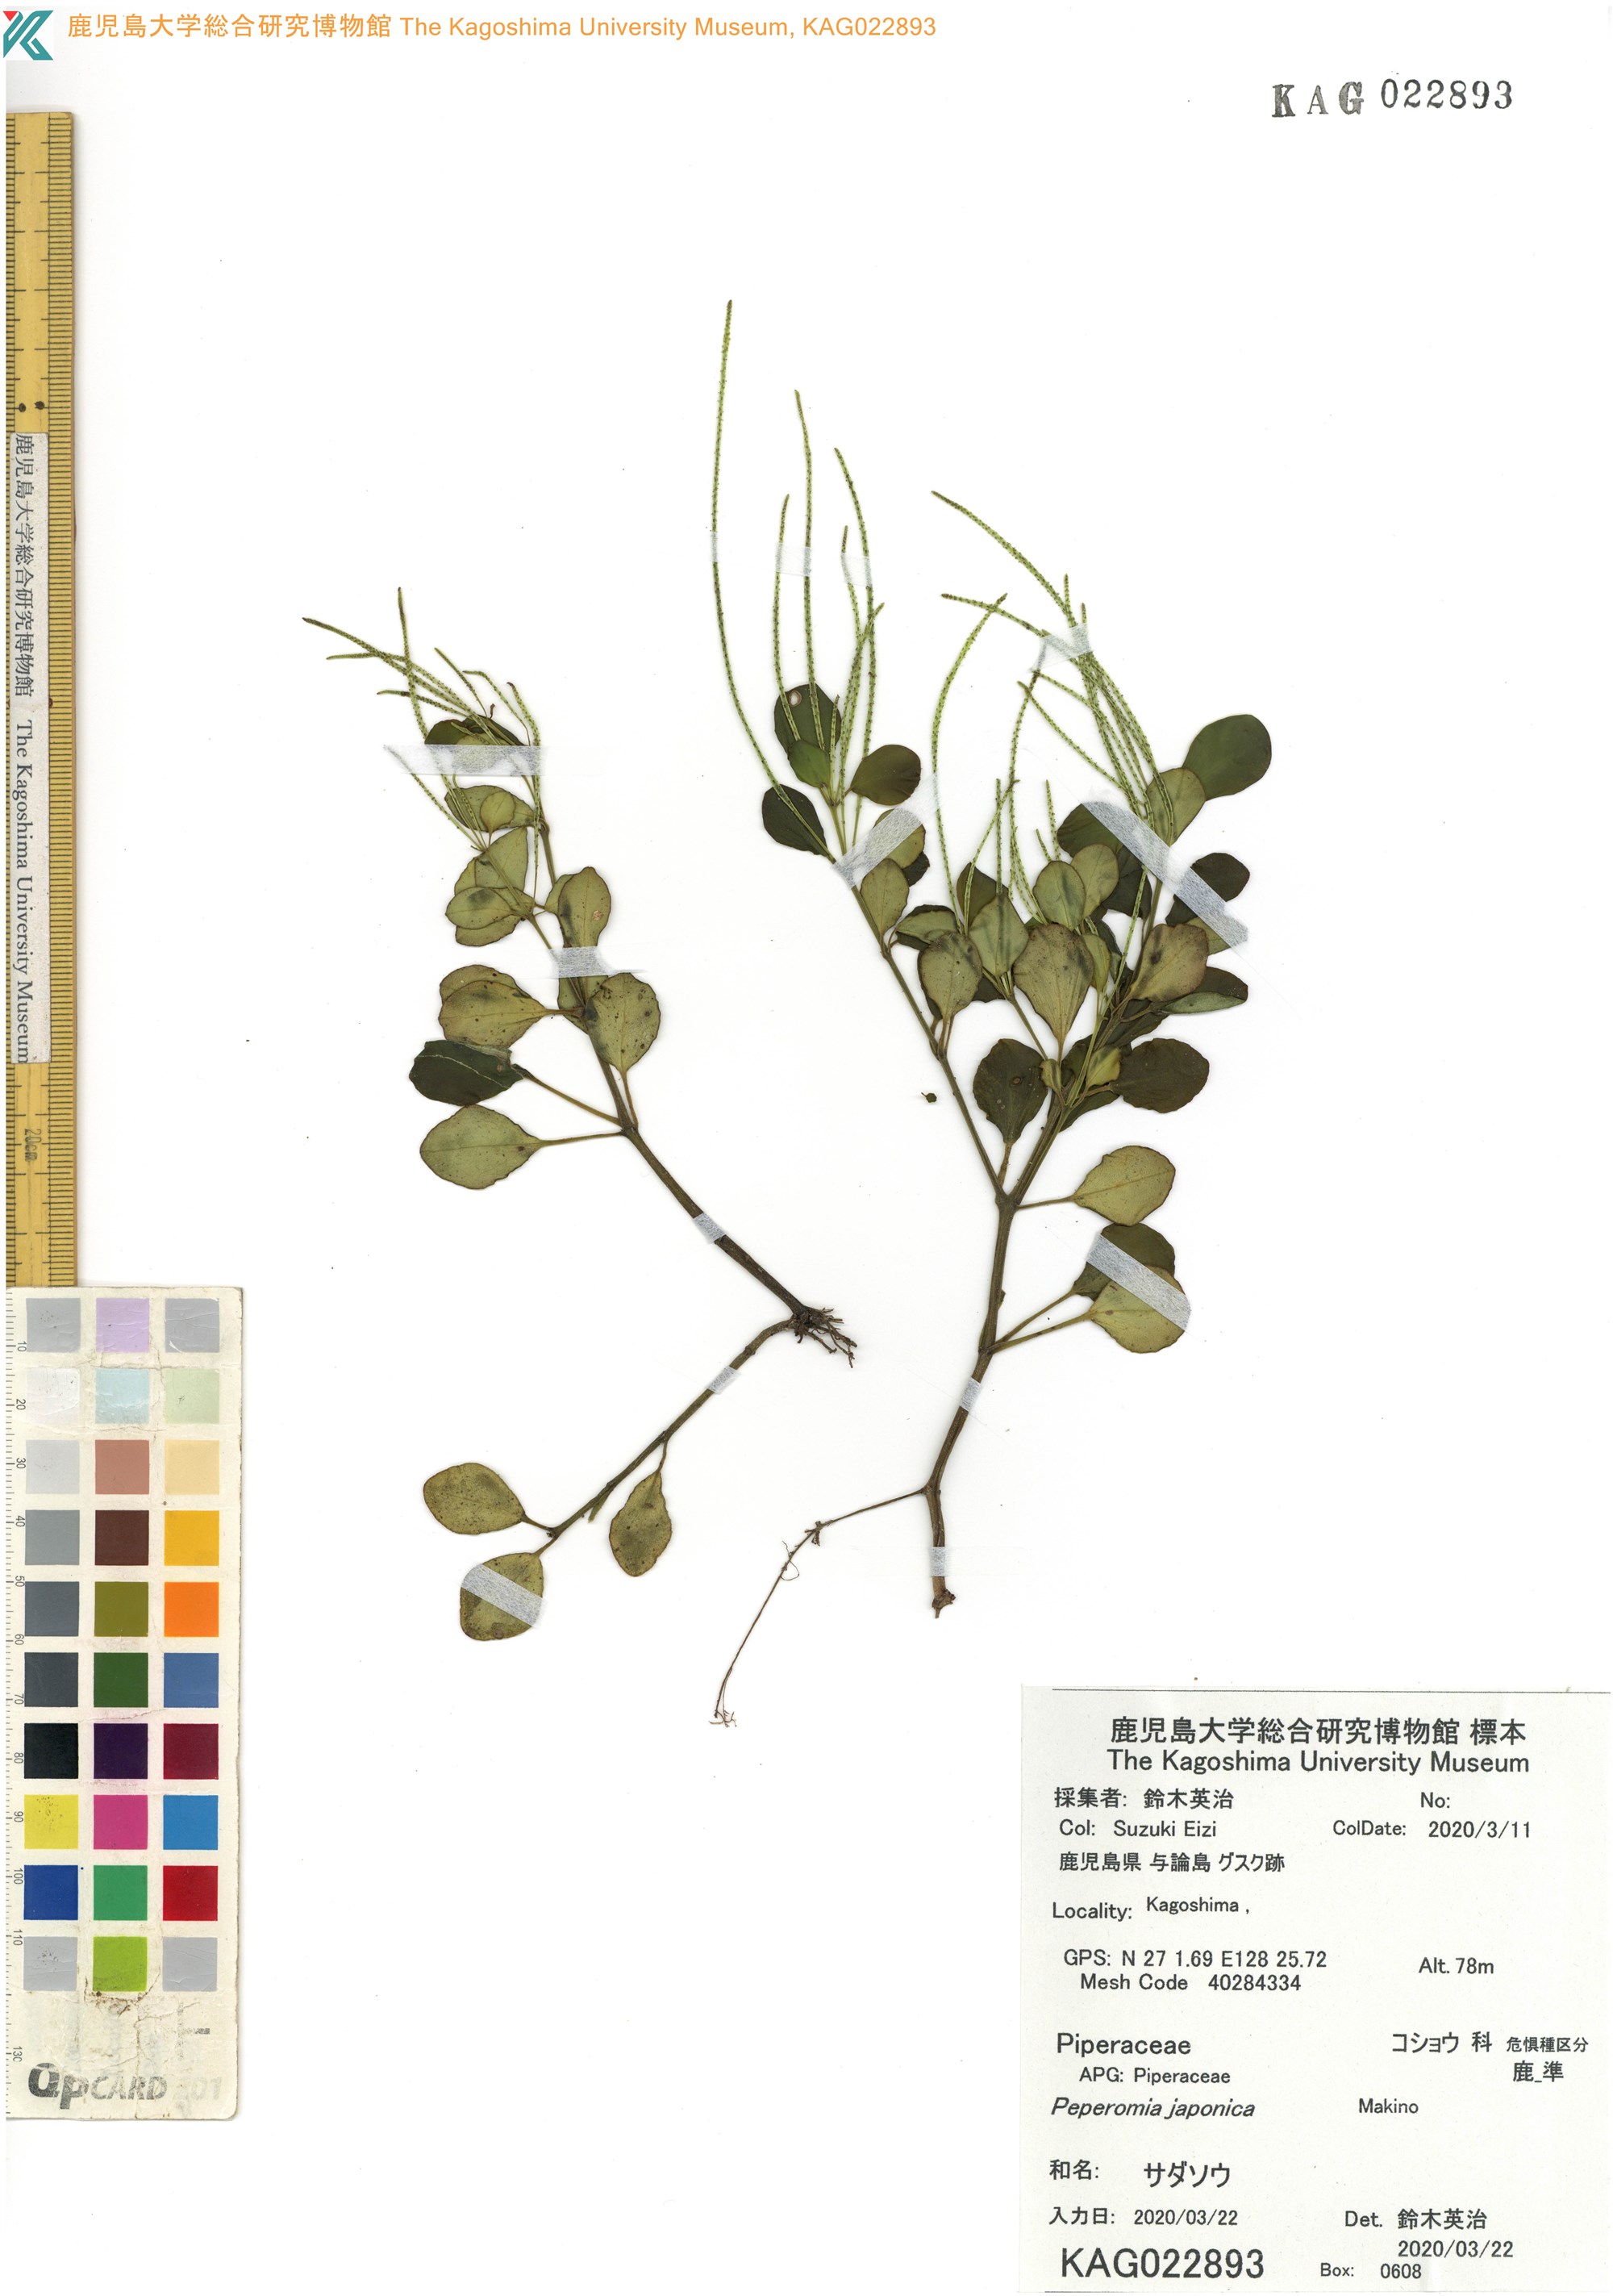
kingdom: Plantae
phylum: Tracheophyta
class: Magnoliopsida
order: Piperales
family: Piperaceae
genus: Peperomia
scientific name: Peperomia japonica
